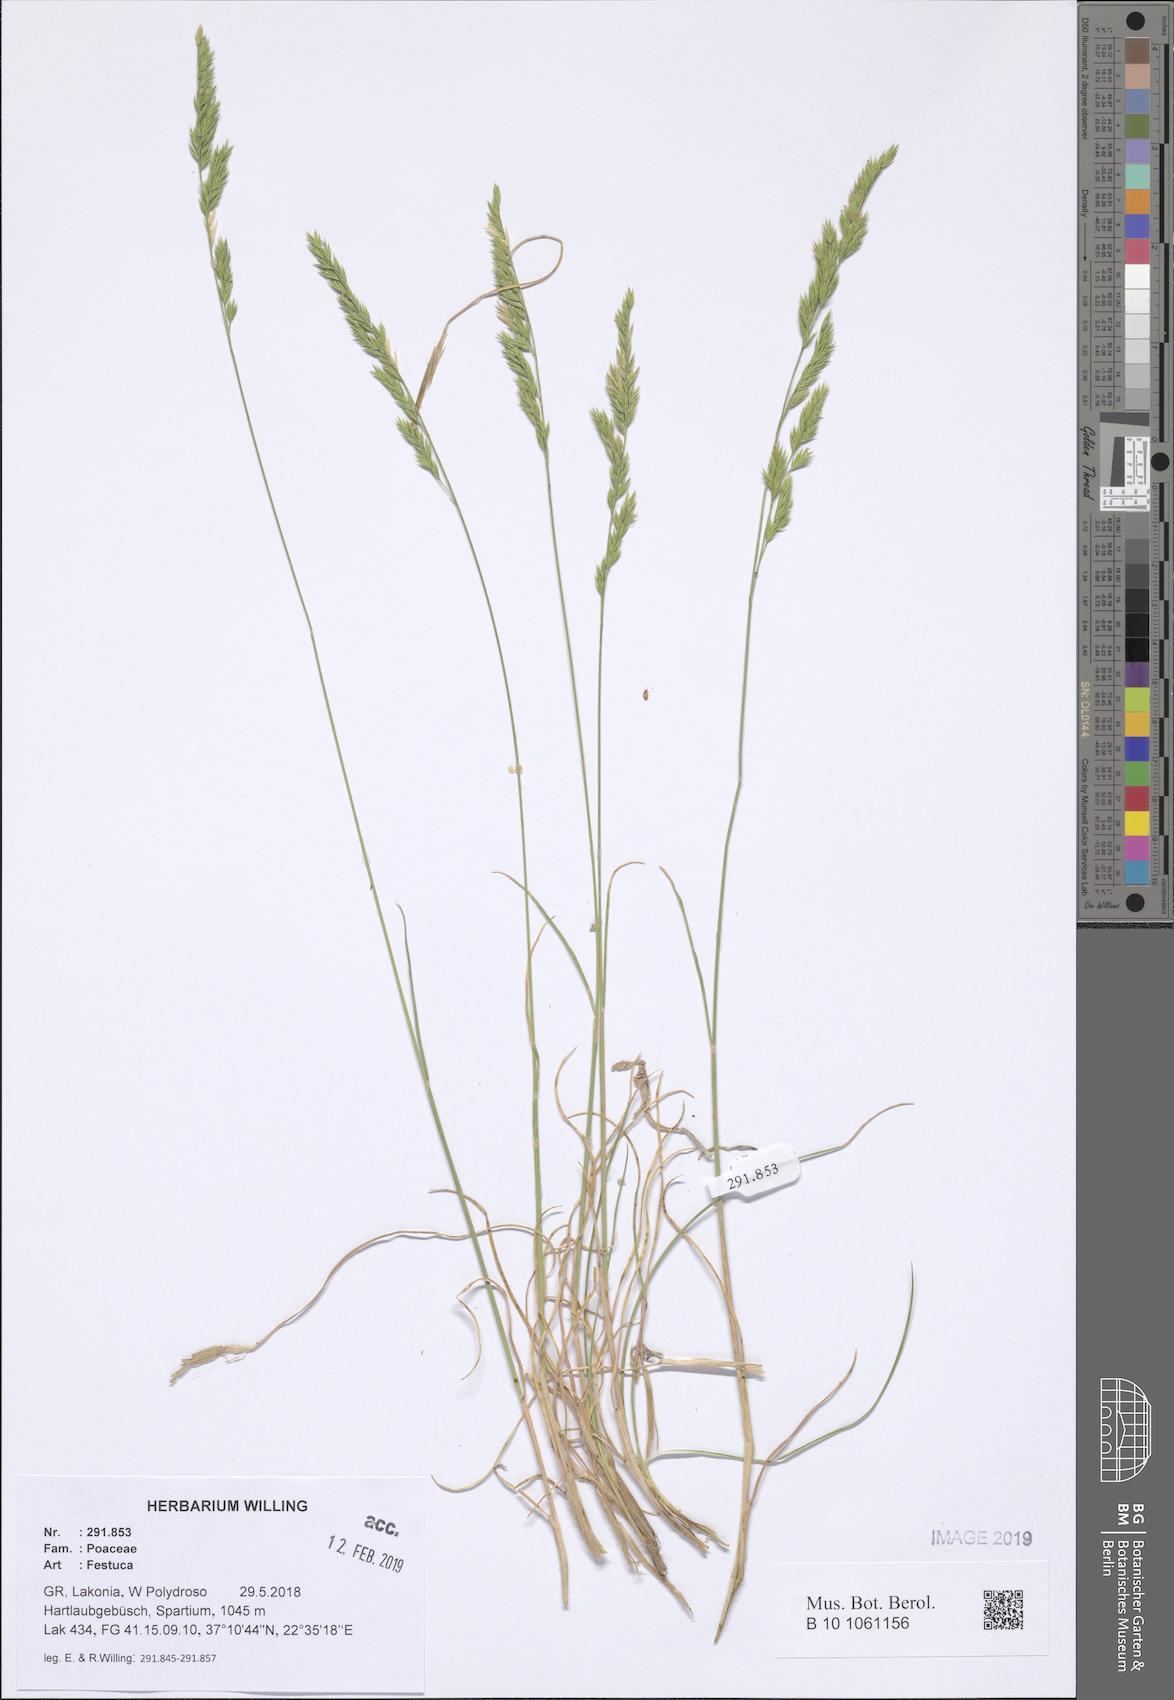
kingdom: Plantae
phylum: Tracheophyta
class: Liliopsida
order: Poales
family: Poaceae
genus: Festuca
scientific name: Festuca
